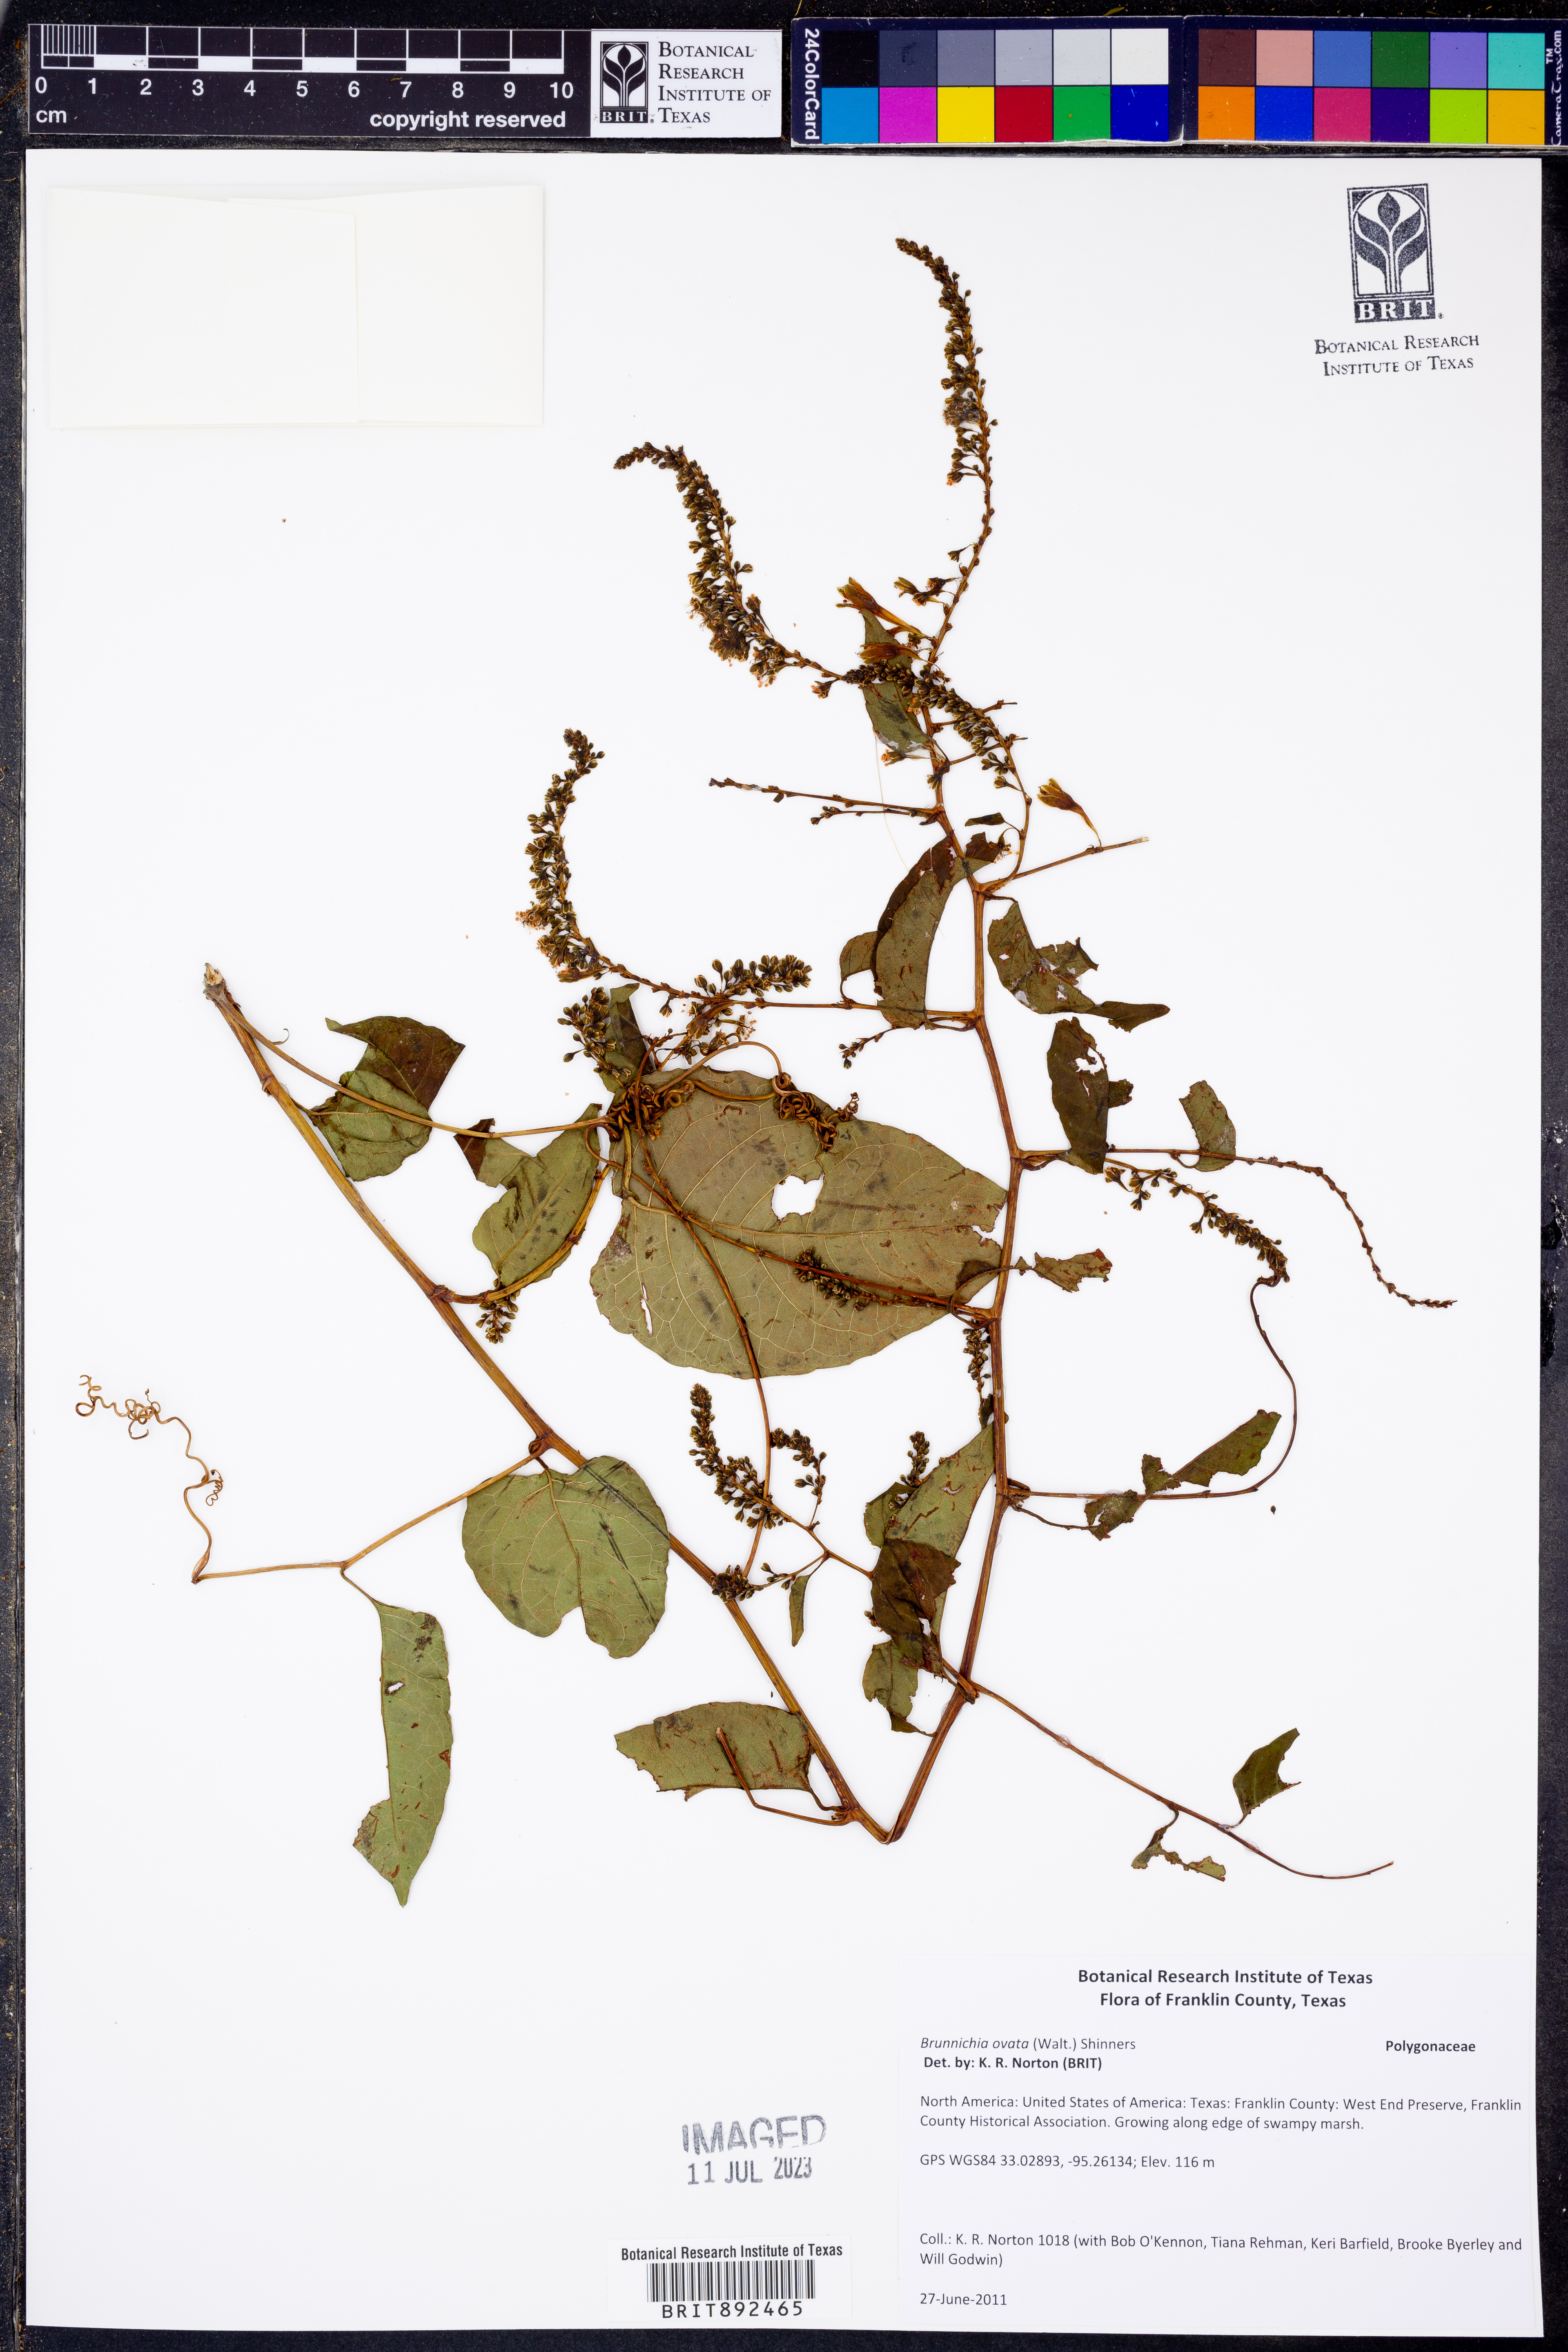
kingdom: Plantae
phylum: Tracheophyta
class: Magnoliopsida
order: Caryophyllales
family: Polygonaceae
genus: Brunnichia
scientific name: Brunnichia ovata
